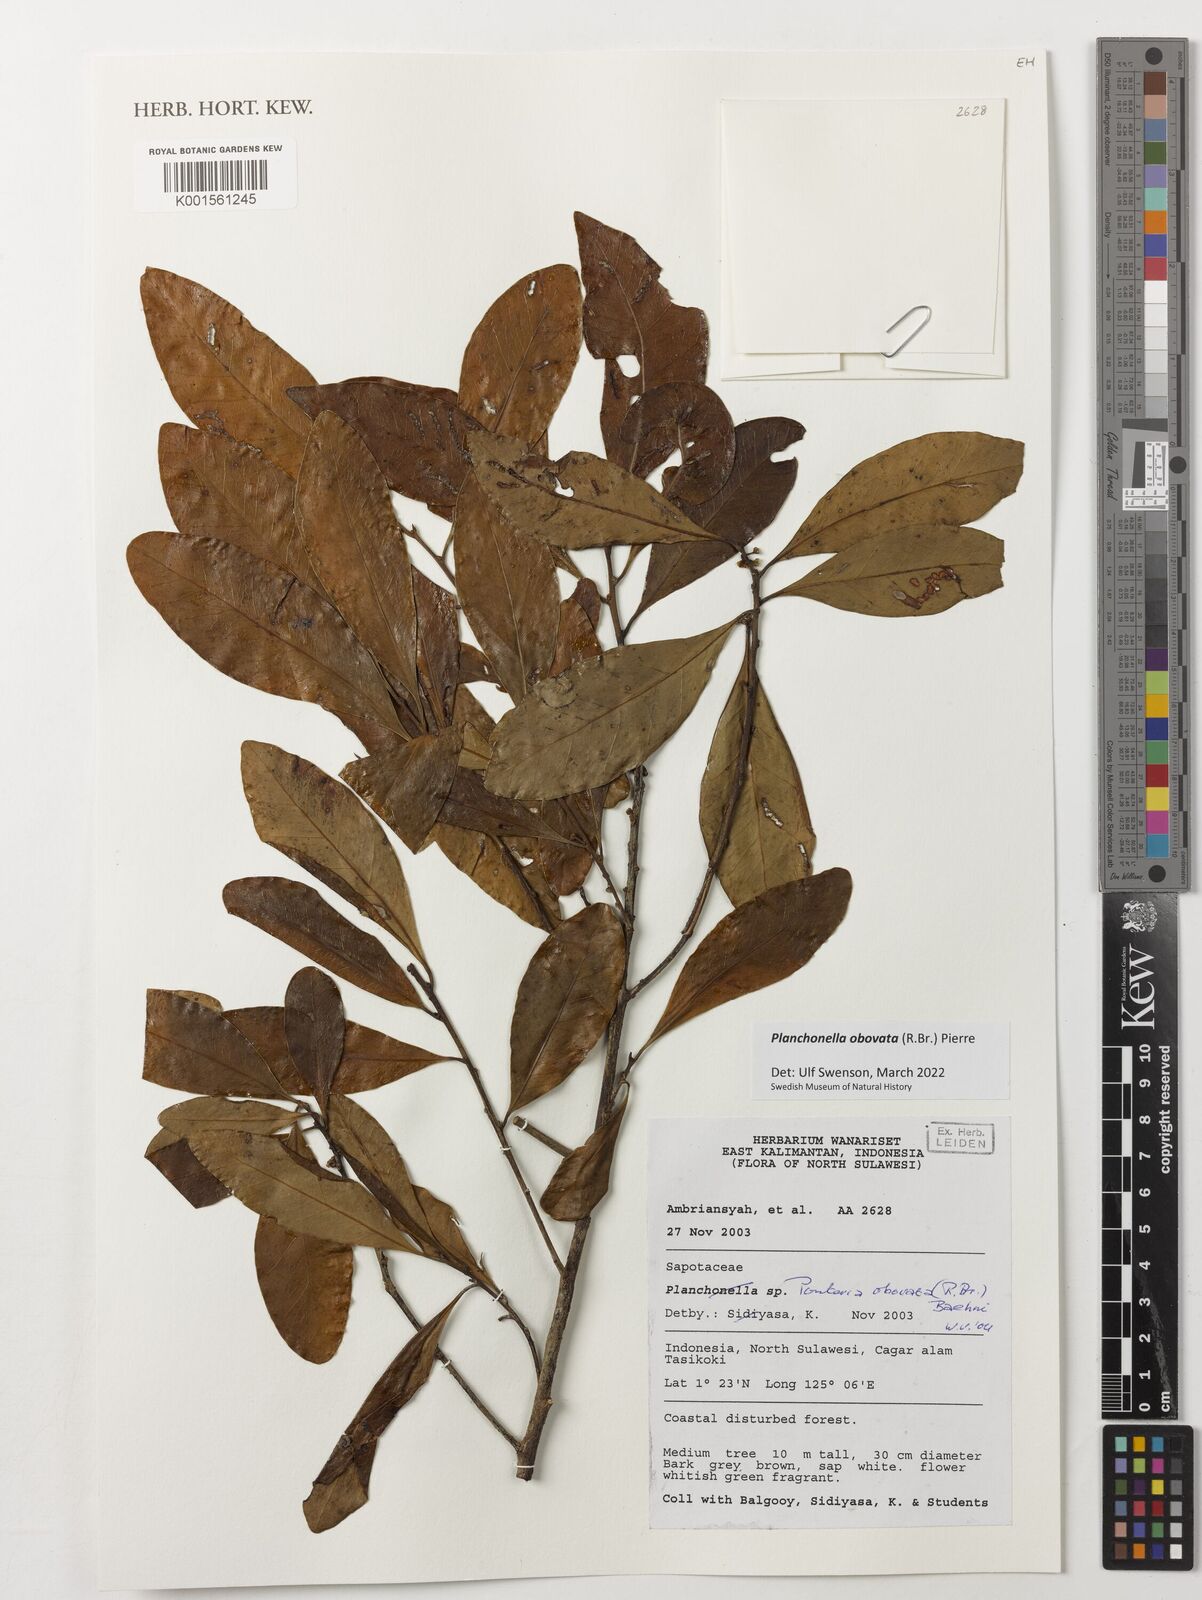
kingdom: Plantae
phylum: Tracheophyta
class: Magnoliopsida
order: Ericales
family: Sapotaceae
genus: Planchonella
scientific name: Planchonella obovata
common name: Black-ash
